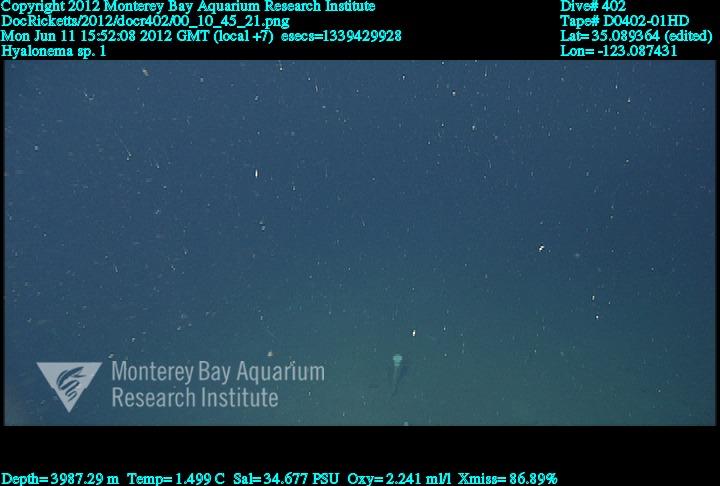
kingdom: Animalia
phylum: Porifera
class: Hexactinellida
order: Amphidiscosida
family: Hyalonematidae
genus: Hyalonema
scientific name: Hyalonema
